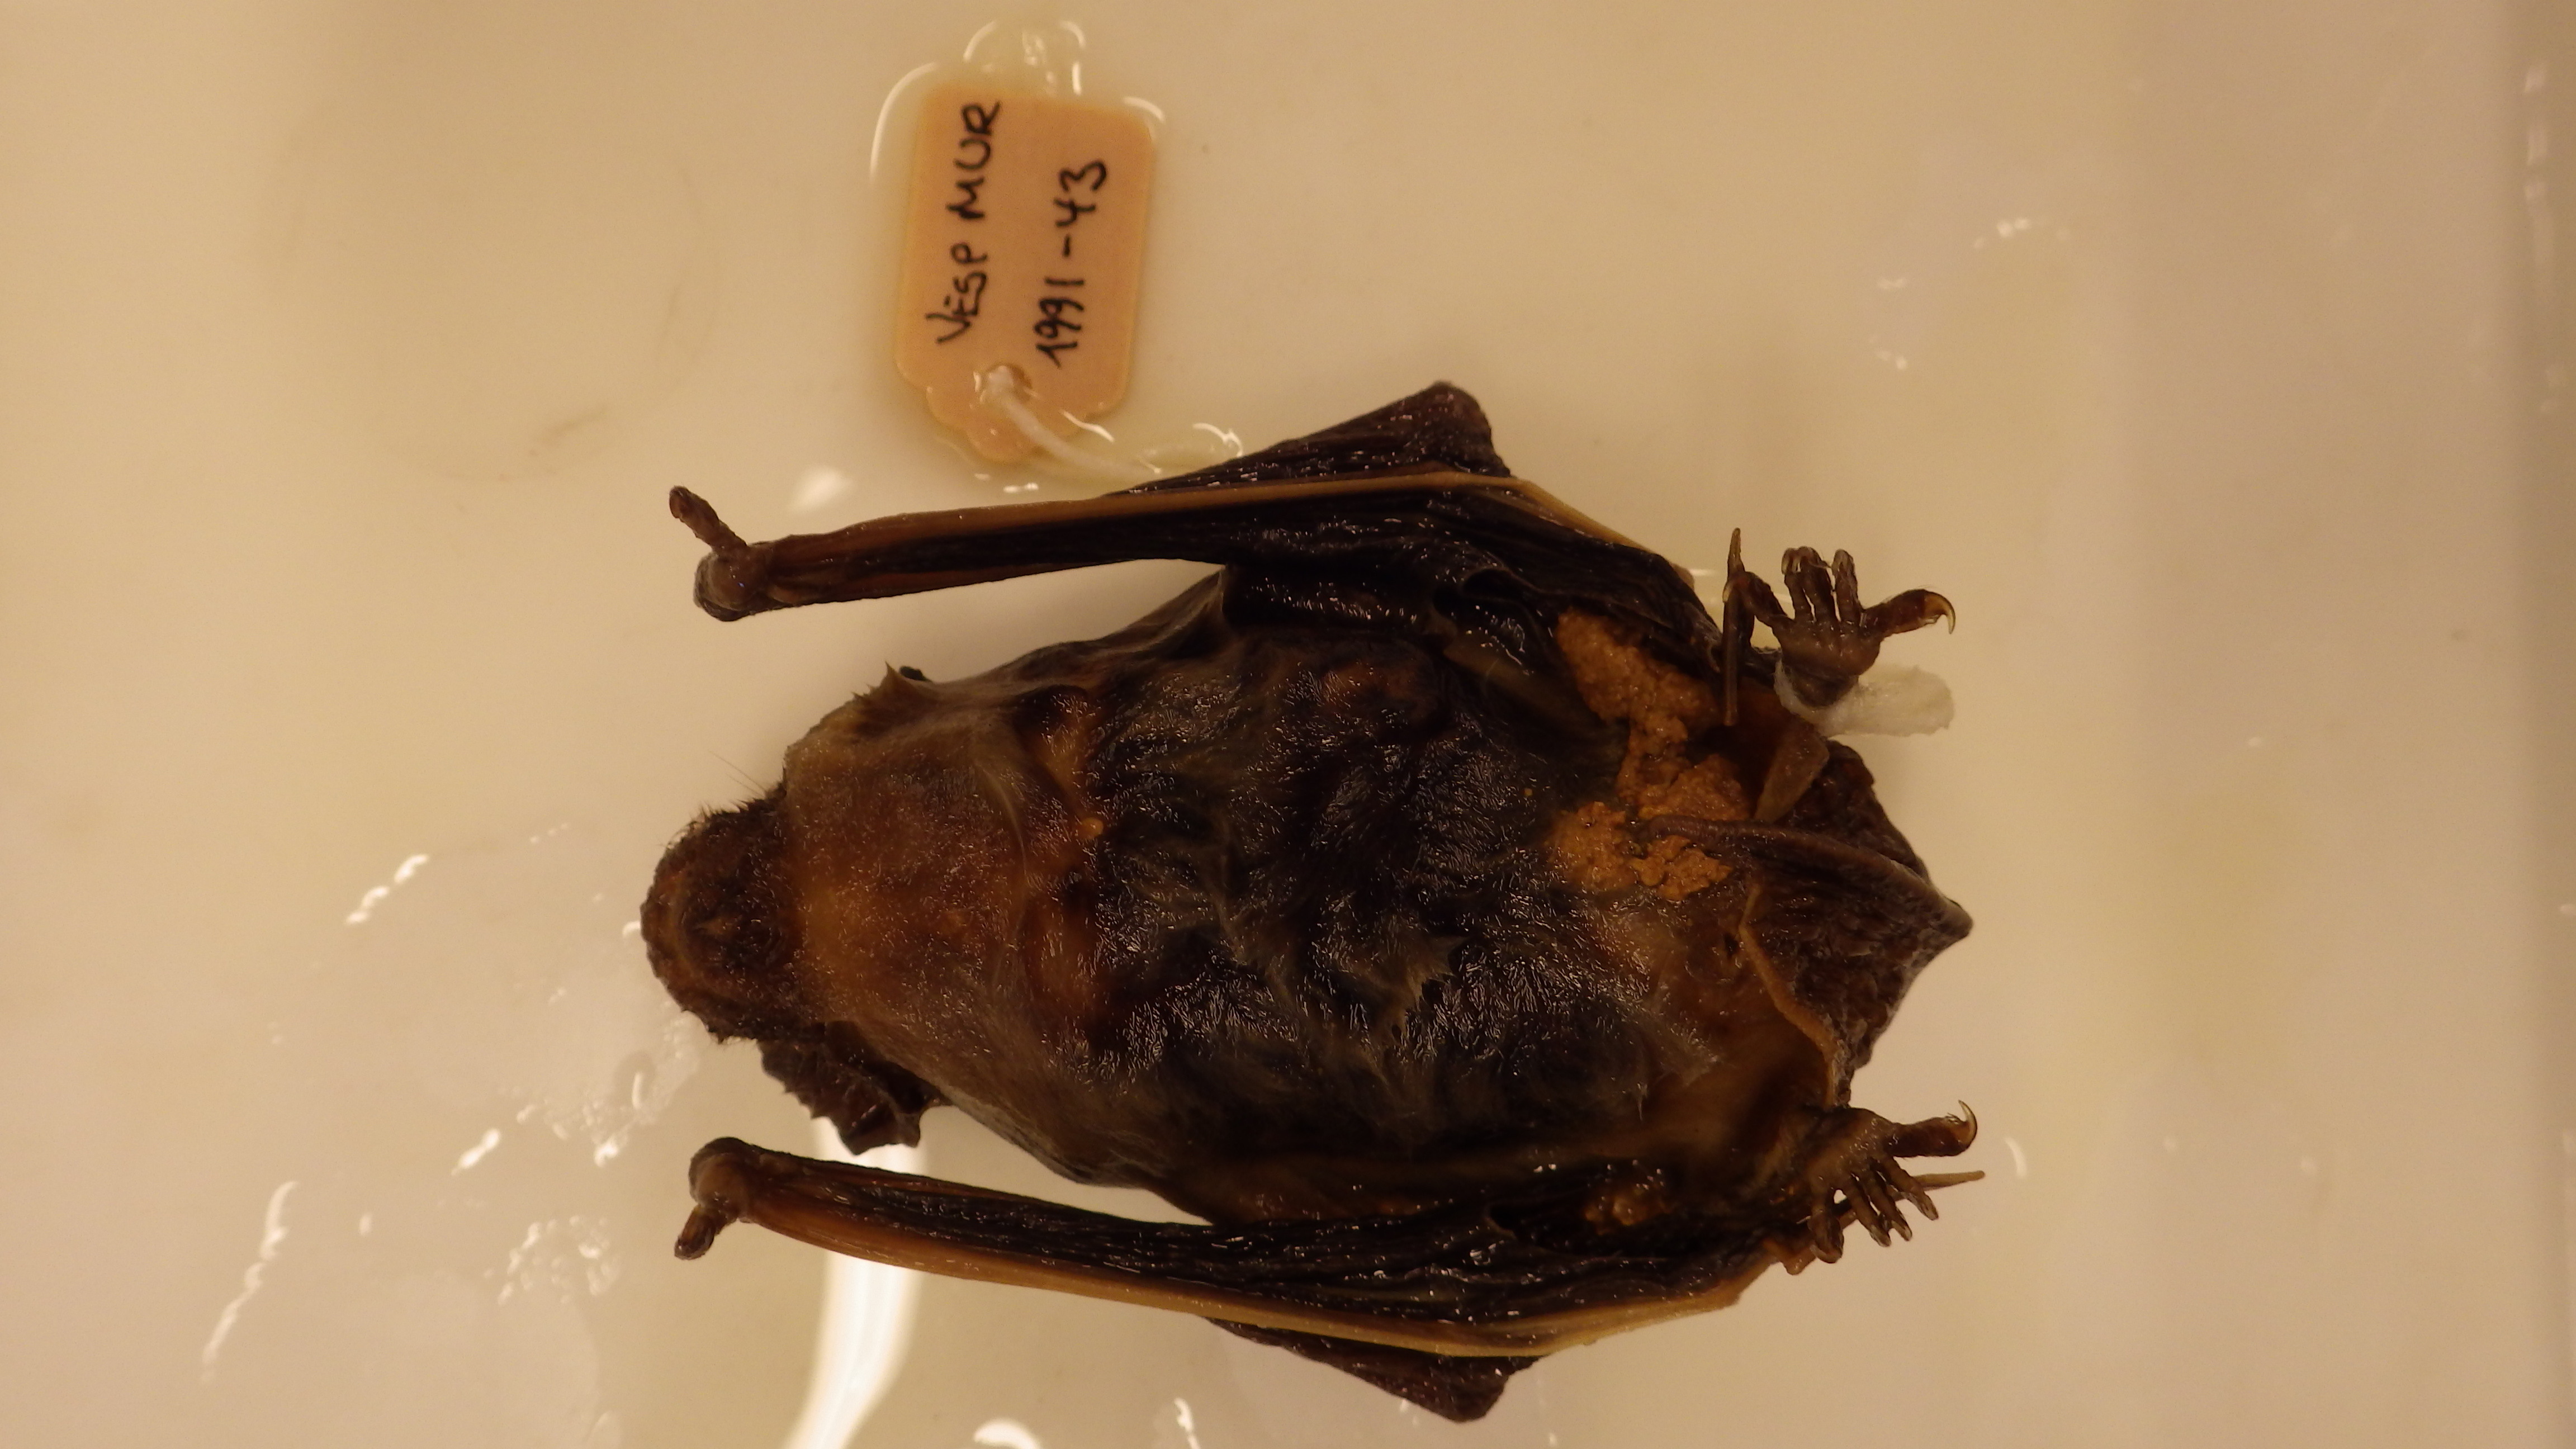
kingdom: Animalia
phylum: Chordata
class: Mammalia
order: Chiroptera
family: Vespertilionidae
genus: Vespertilio
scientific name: Vespertilio murinus
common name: Particolored bat
